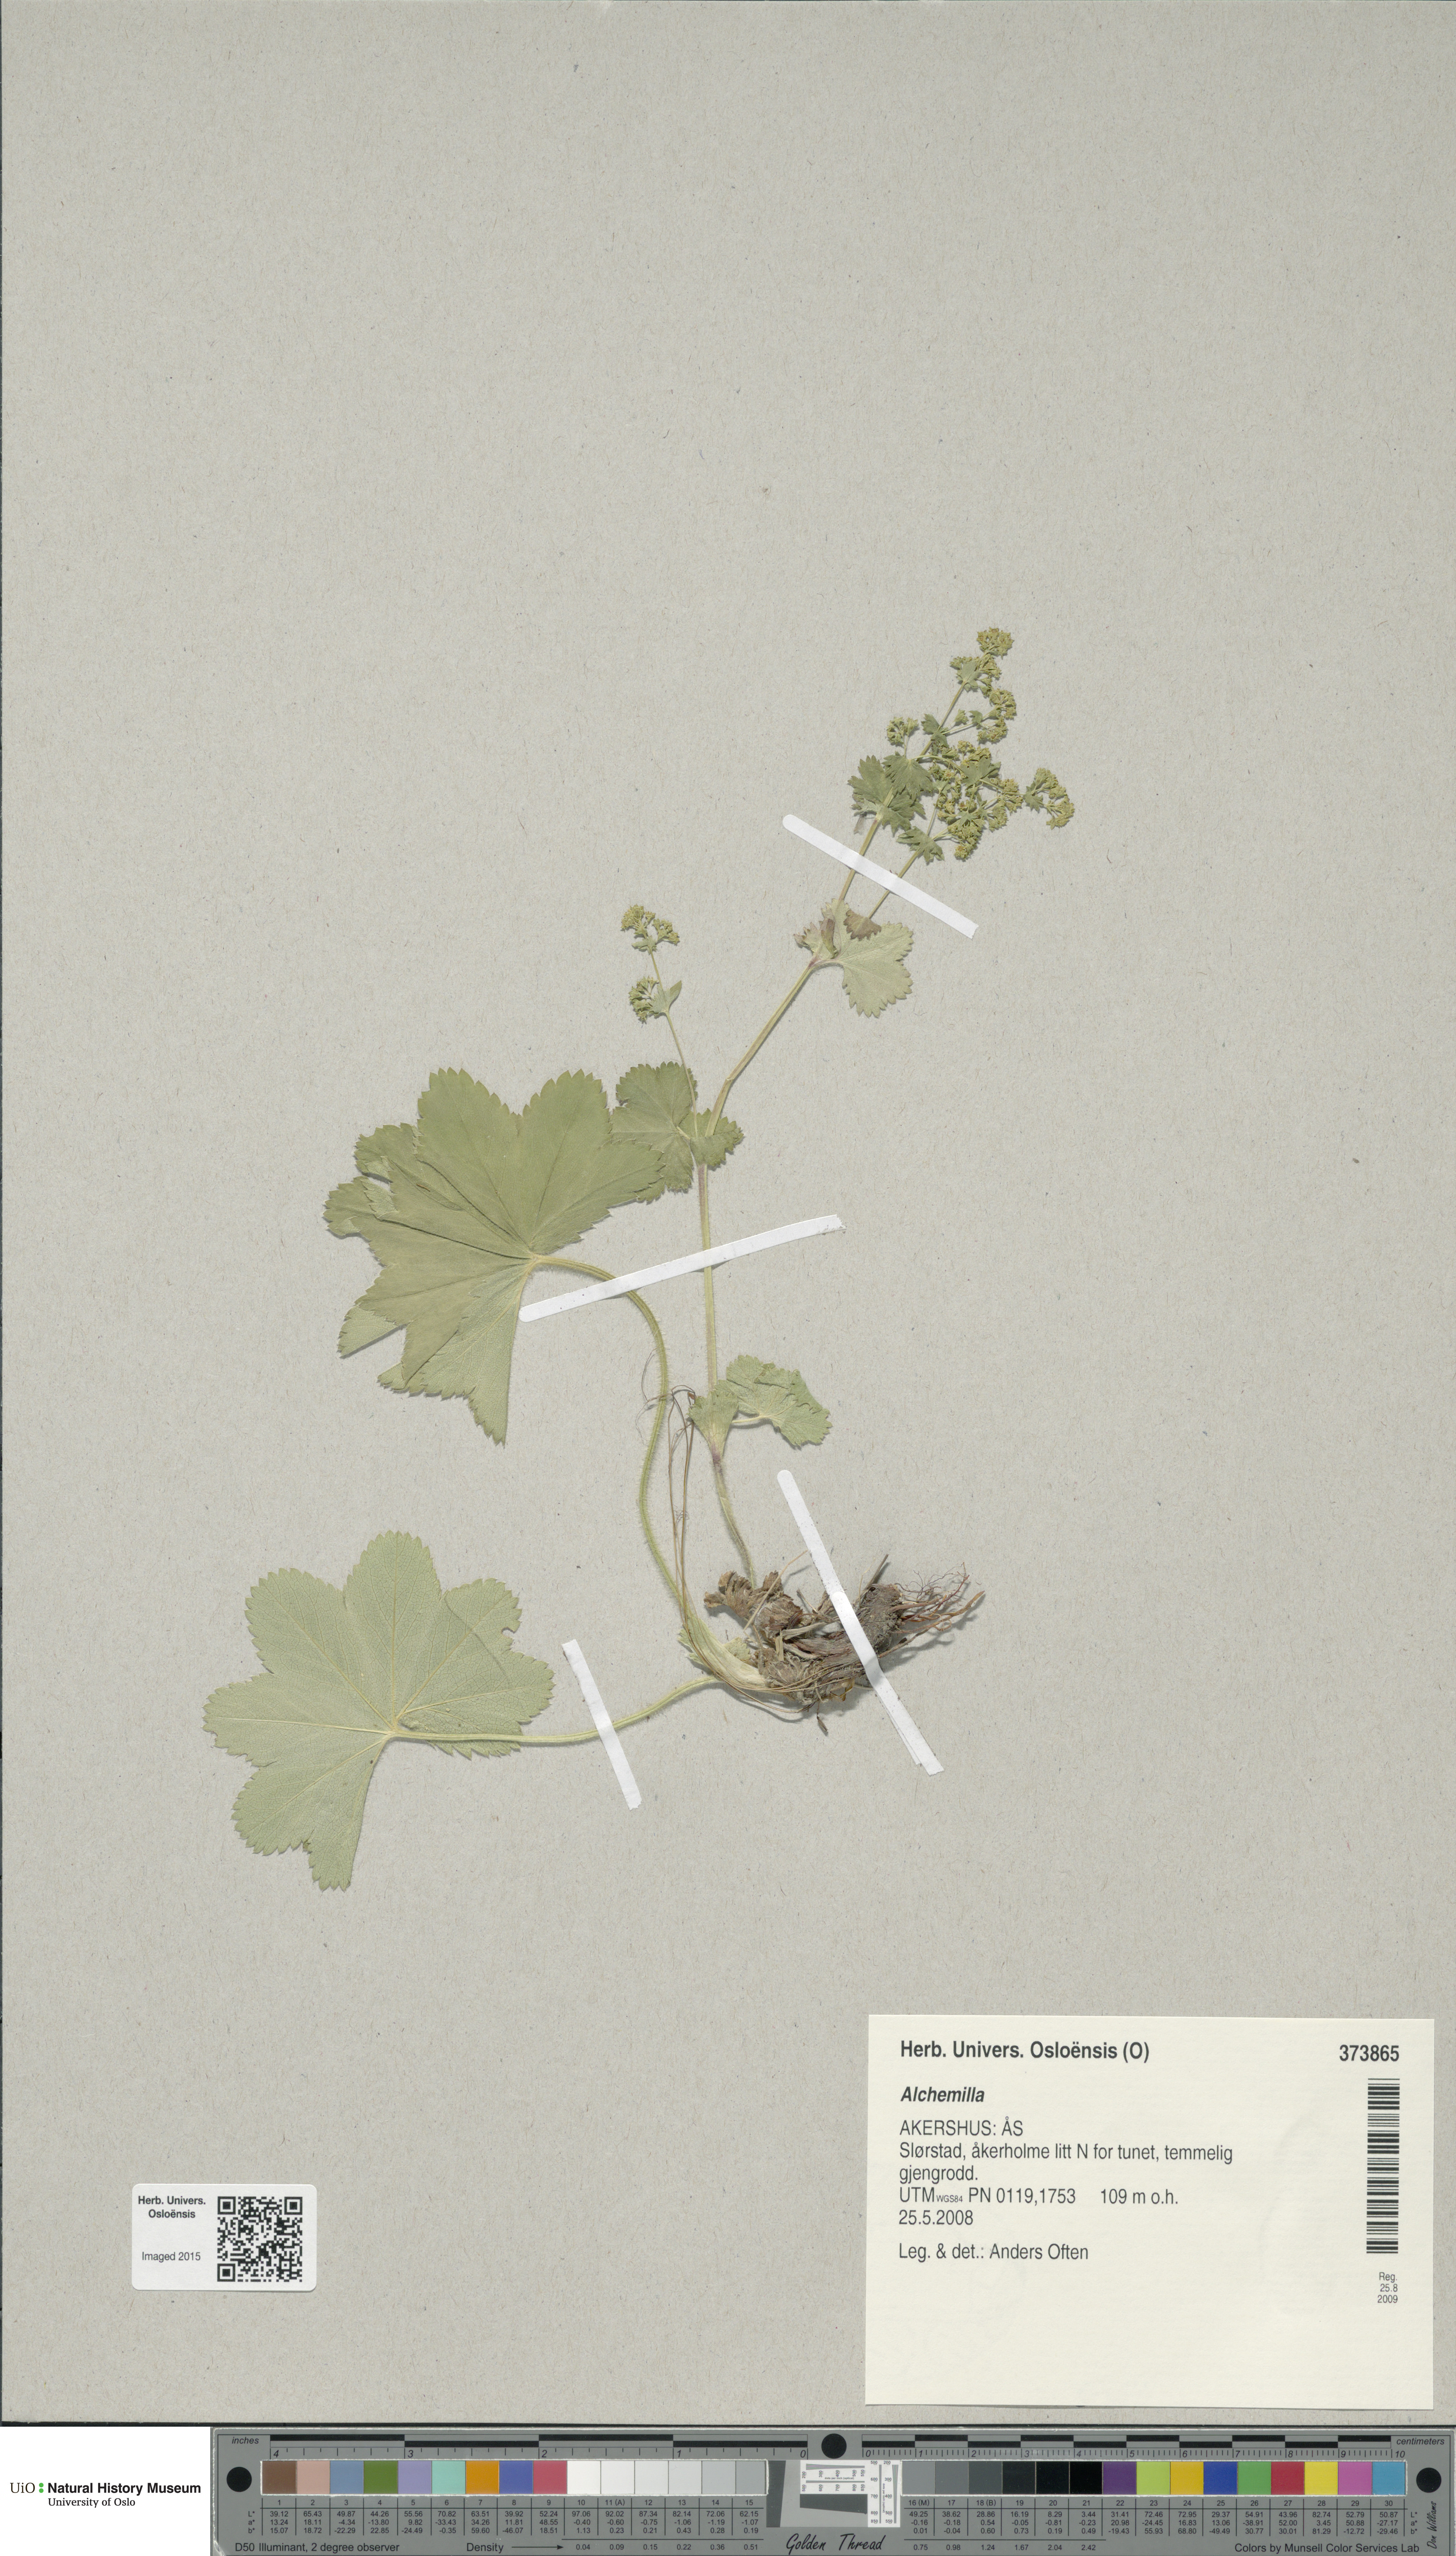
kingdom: Plantae
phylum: Tracheophyta
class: Magnoliopsida
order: Rosales
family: Rosaceae
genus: Alchemilla
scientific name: Alchemilla
